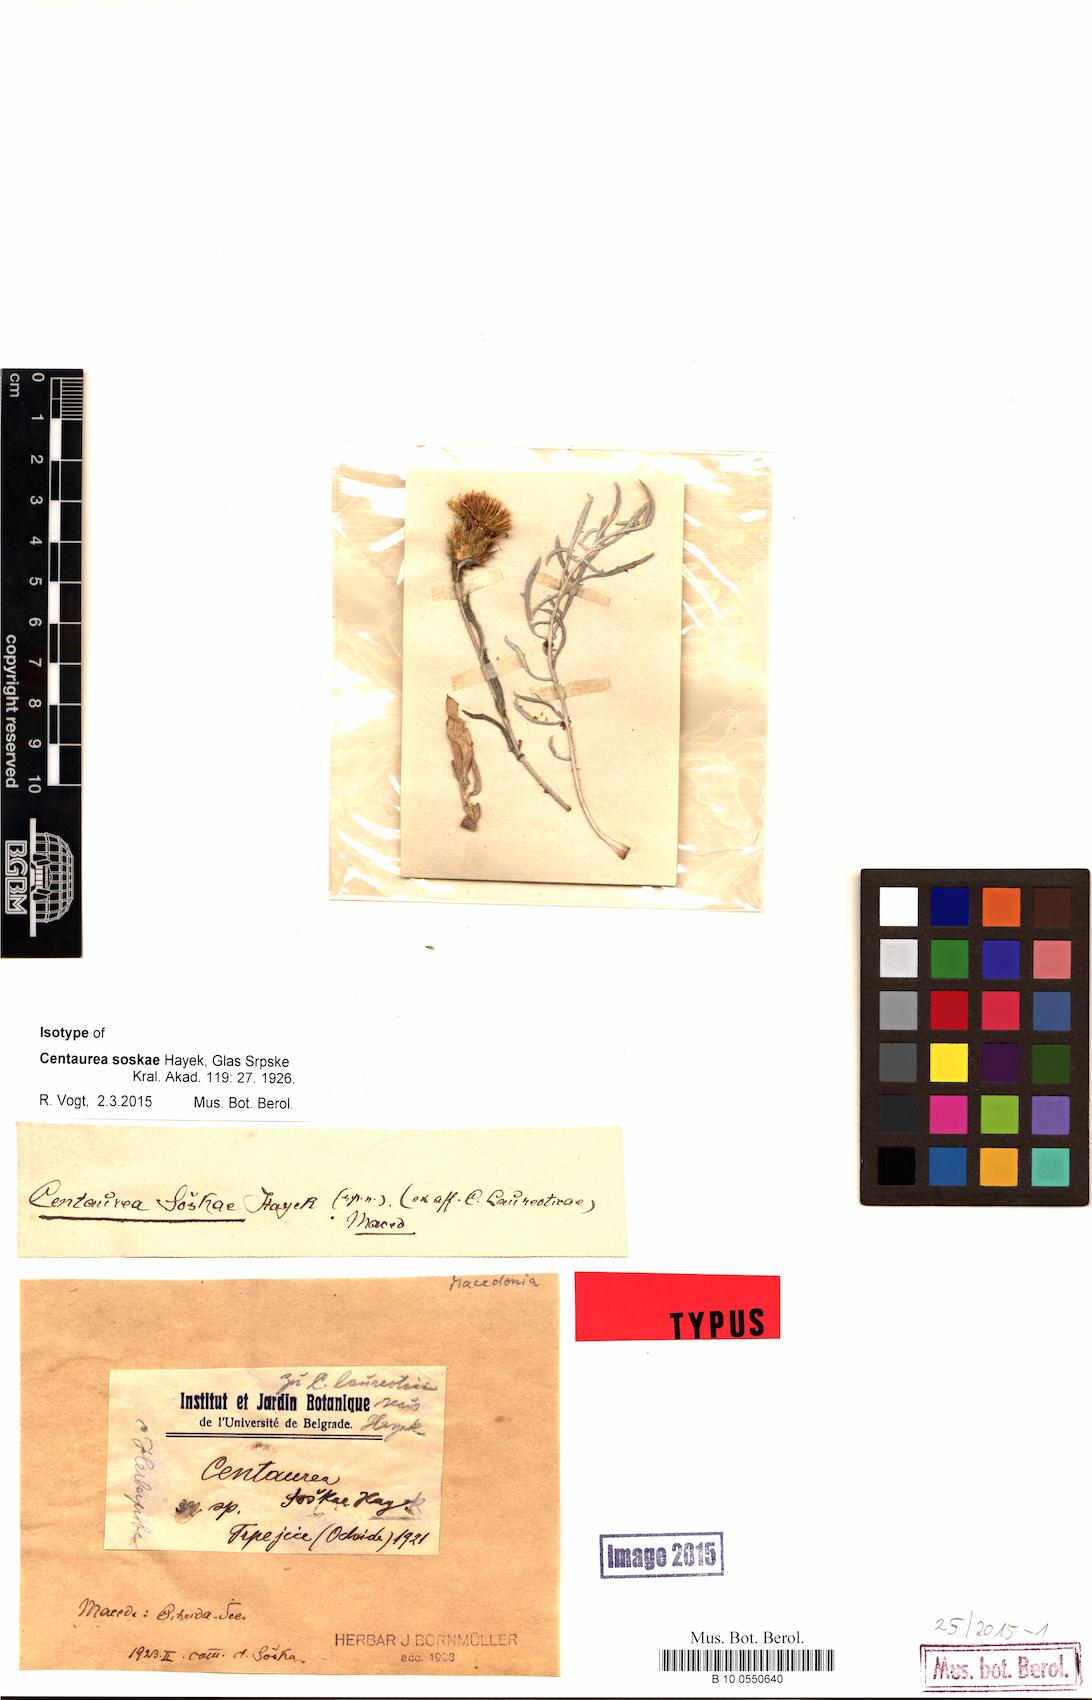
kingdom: Plantae
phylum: Tracheophyta
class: Magnoliopsida
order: Asterales
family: Asteraceae
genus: Centaurea
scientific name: Centaurea soskae
